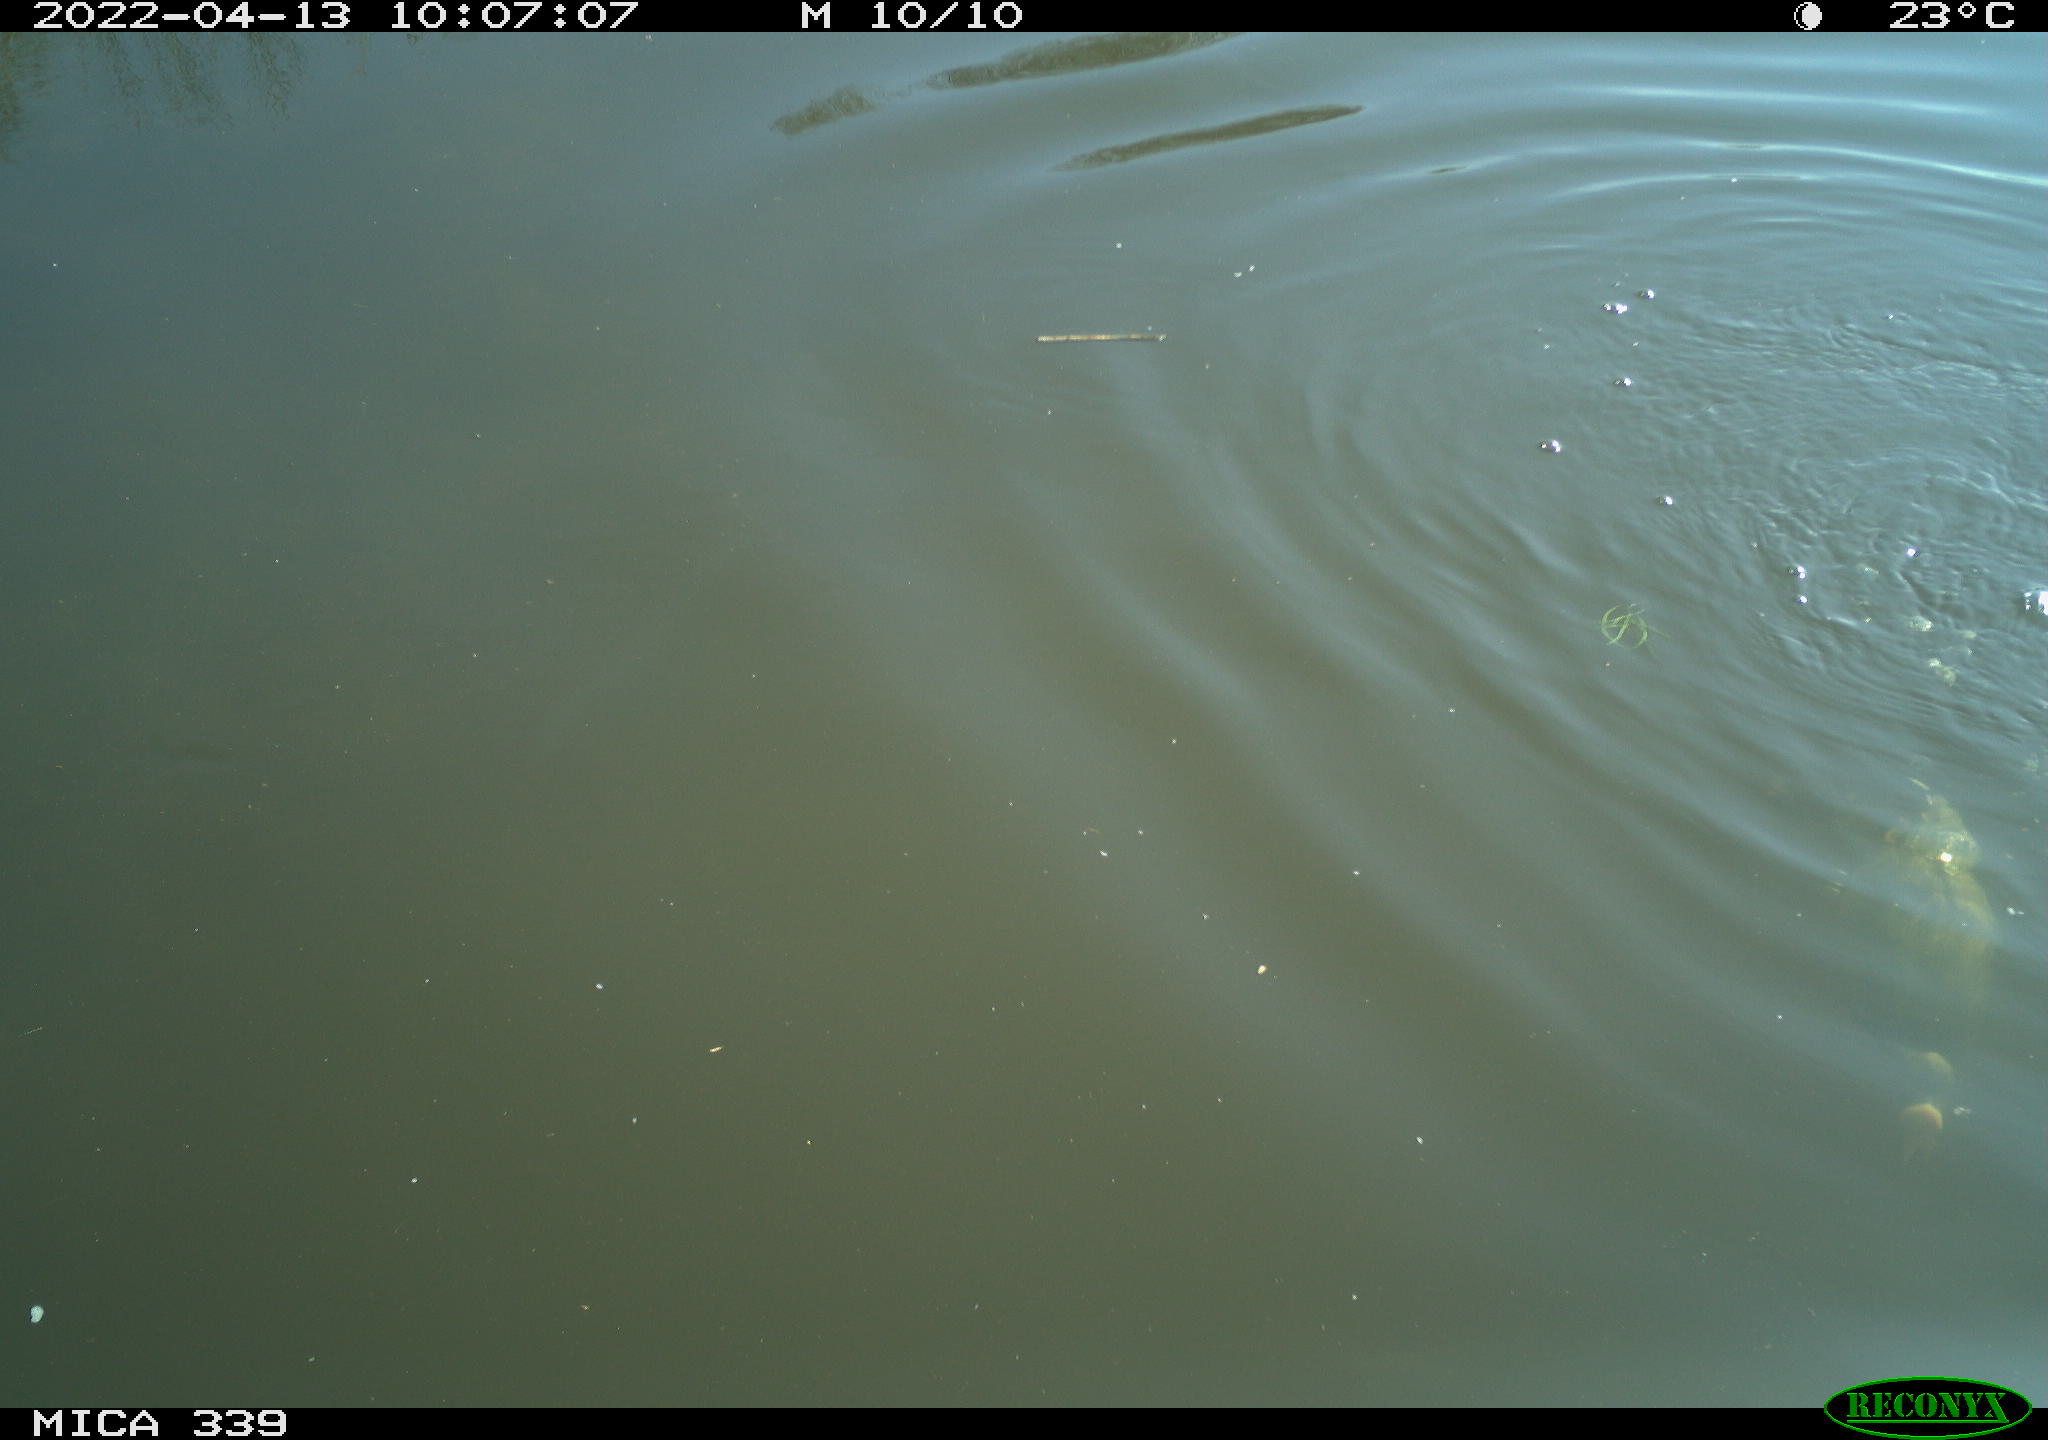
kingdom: Animalia
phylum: Chordata
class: Aves
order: Gruiformes
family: Rallidae
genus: Fulica
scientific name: Fulica atra
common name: Eurasian coot
